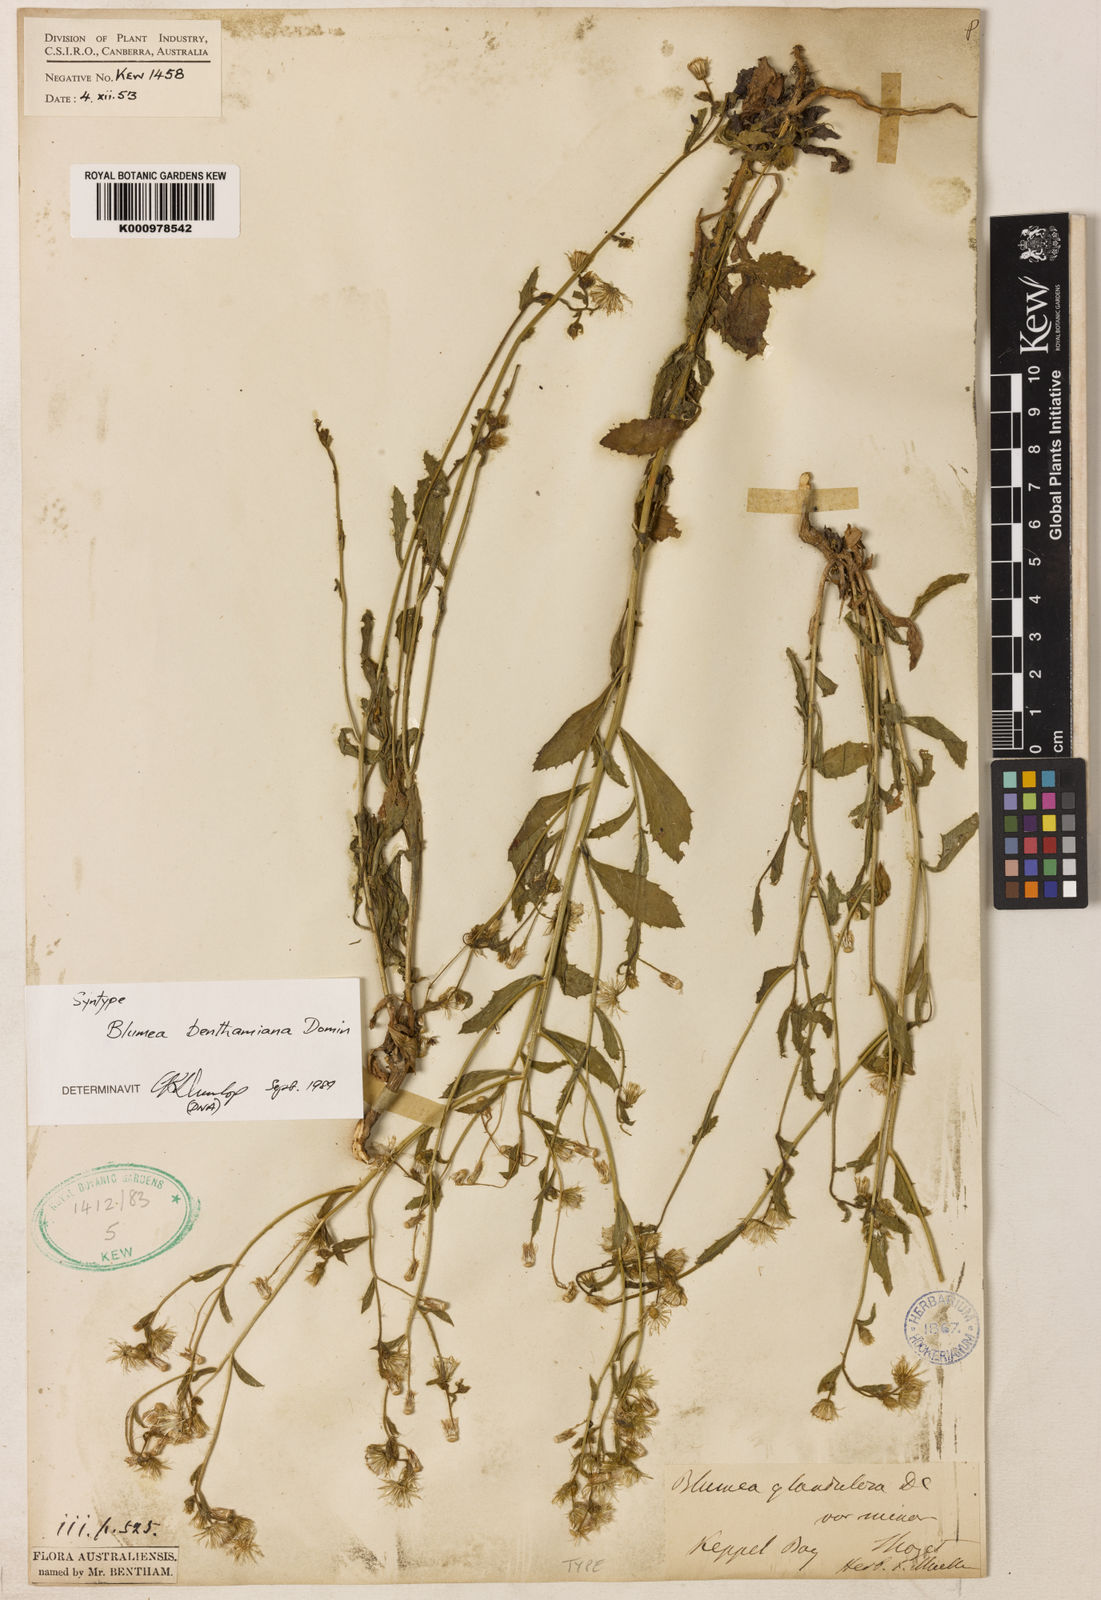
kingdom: Plantae
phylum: Tracheophyta
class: Magnoliopsida
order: Asterales
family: Asteraceae
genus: Blumea
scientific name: Blumea benthamiana
